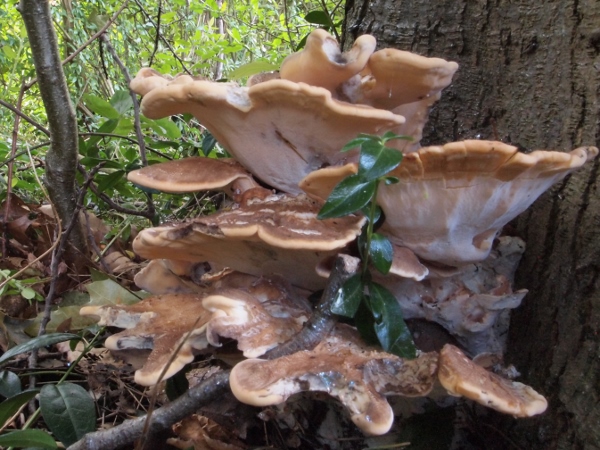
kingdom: Fungi
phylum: Basidiomycota
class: Agaricomycetes
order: Polyporales
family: Meripilaceae
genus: Meripilus
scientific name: Meripilus giganteus
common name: kæmpeporesvamp
